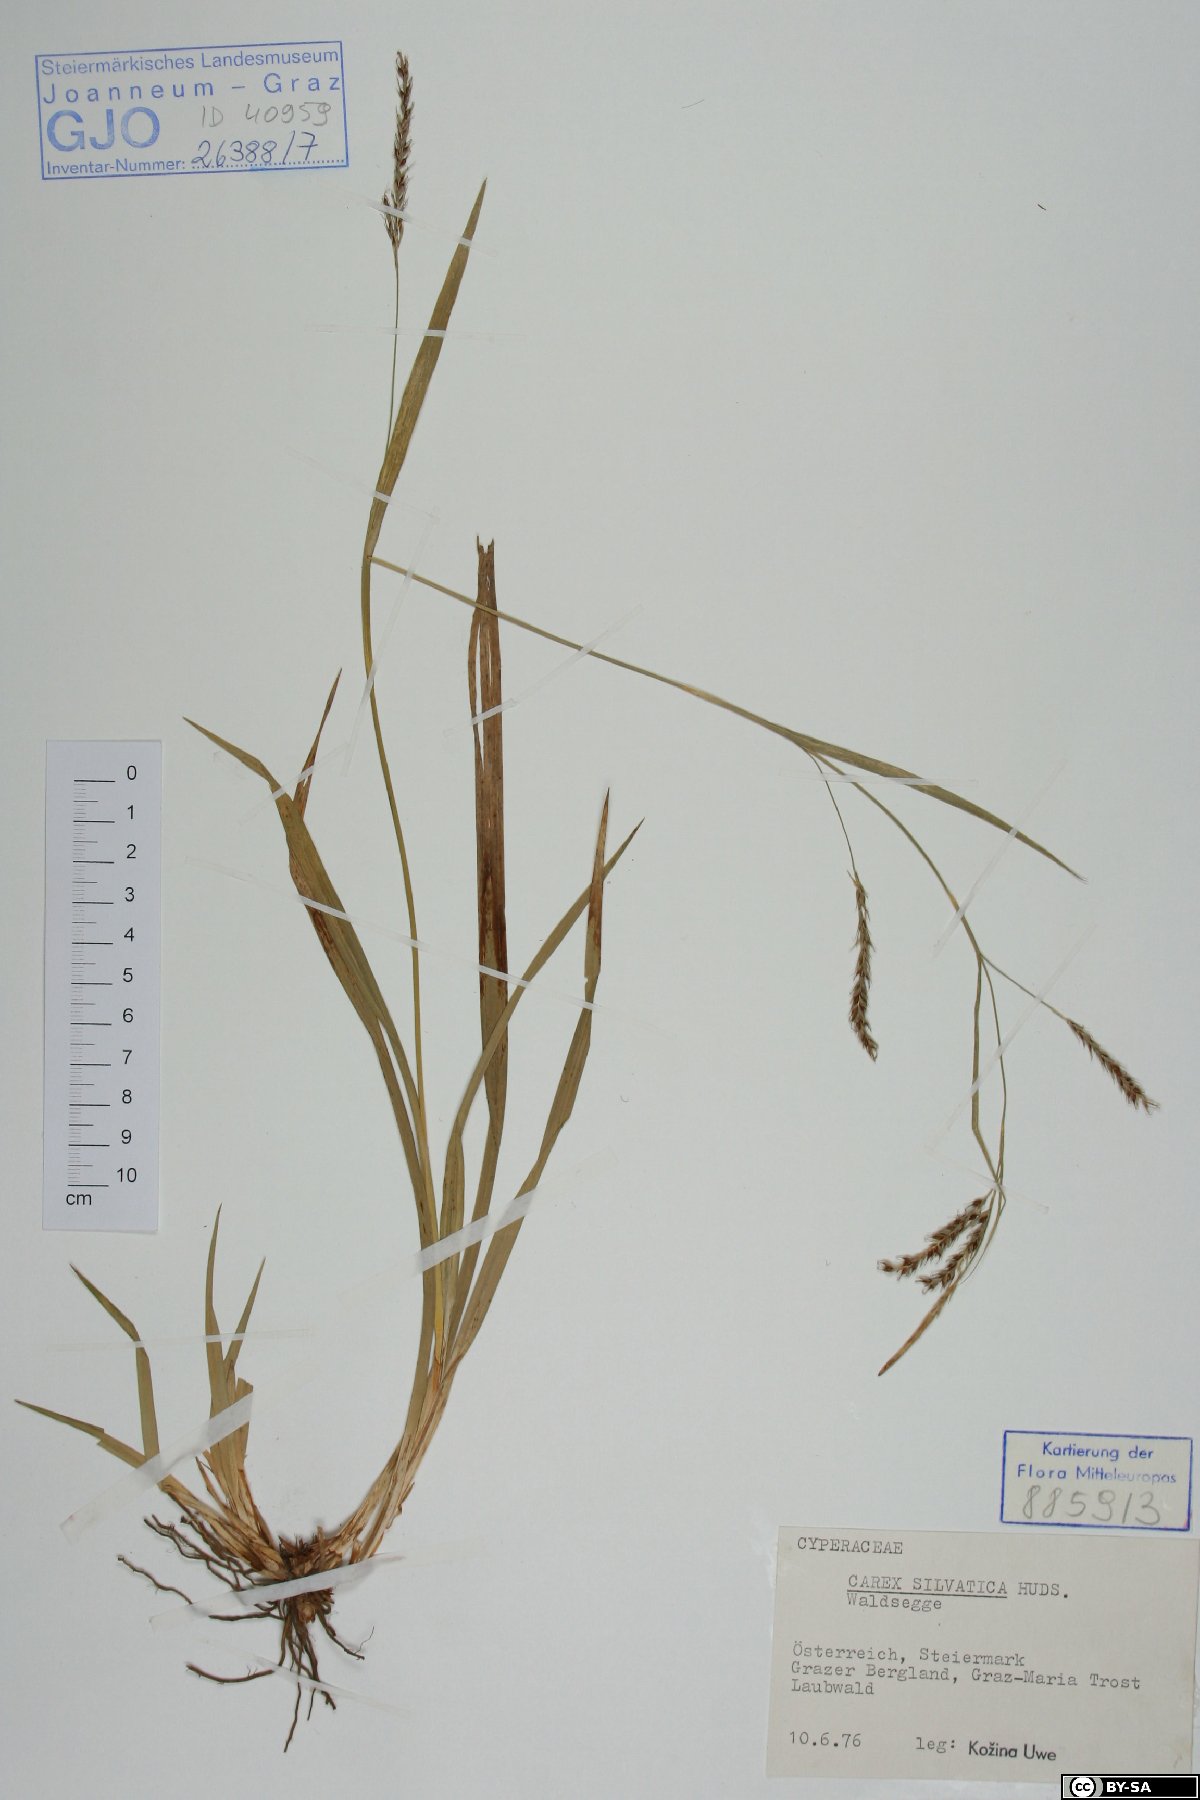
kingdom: Plantae
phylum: Tracheophyta
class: Liliopsida
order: Poales
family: Cyperaceae
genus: Carex
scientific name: Carex sylvatica
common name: Wood-sedge
